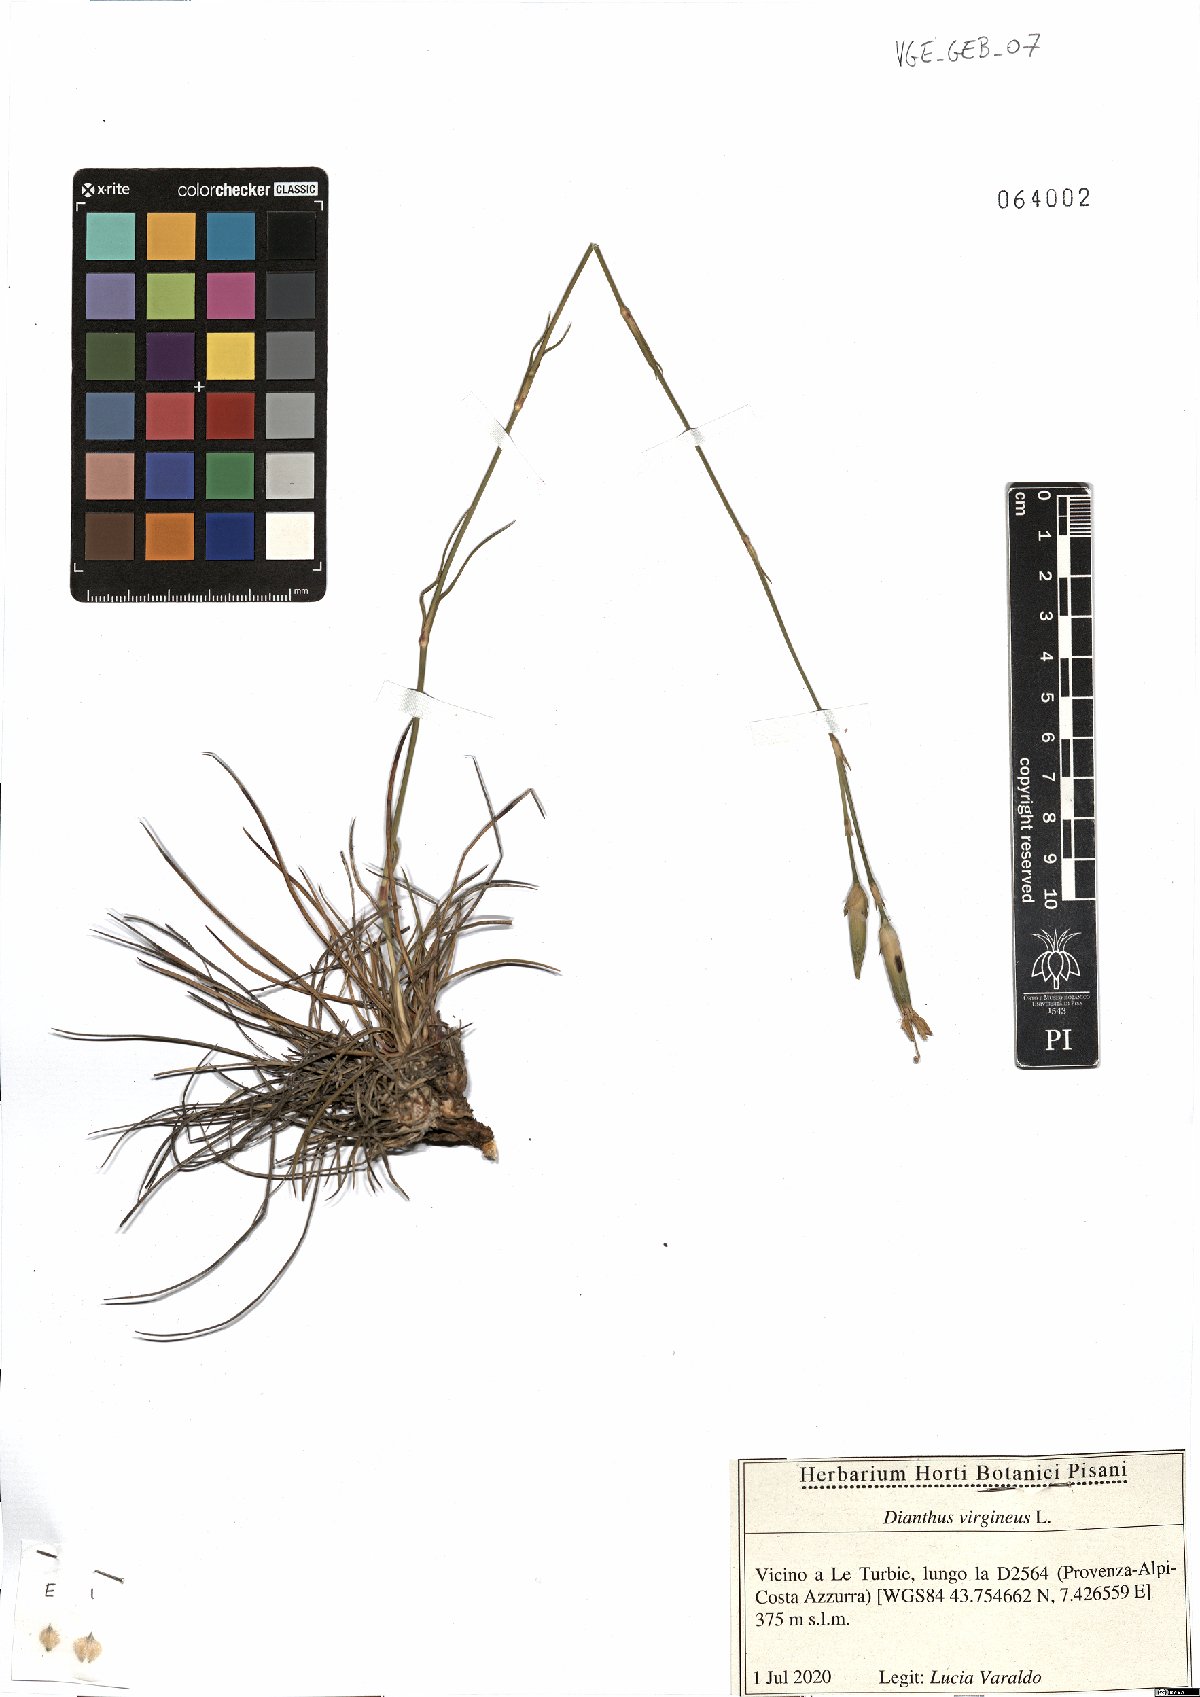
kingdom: Plantae
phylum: Tracheophyta
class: Magnoliopsida
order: Caryophyllales
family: Caryophyllaceae
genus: Dianthus
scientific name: Dianthus virgineus
